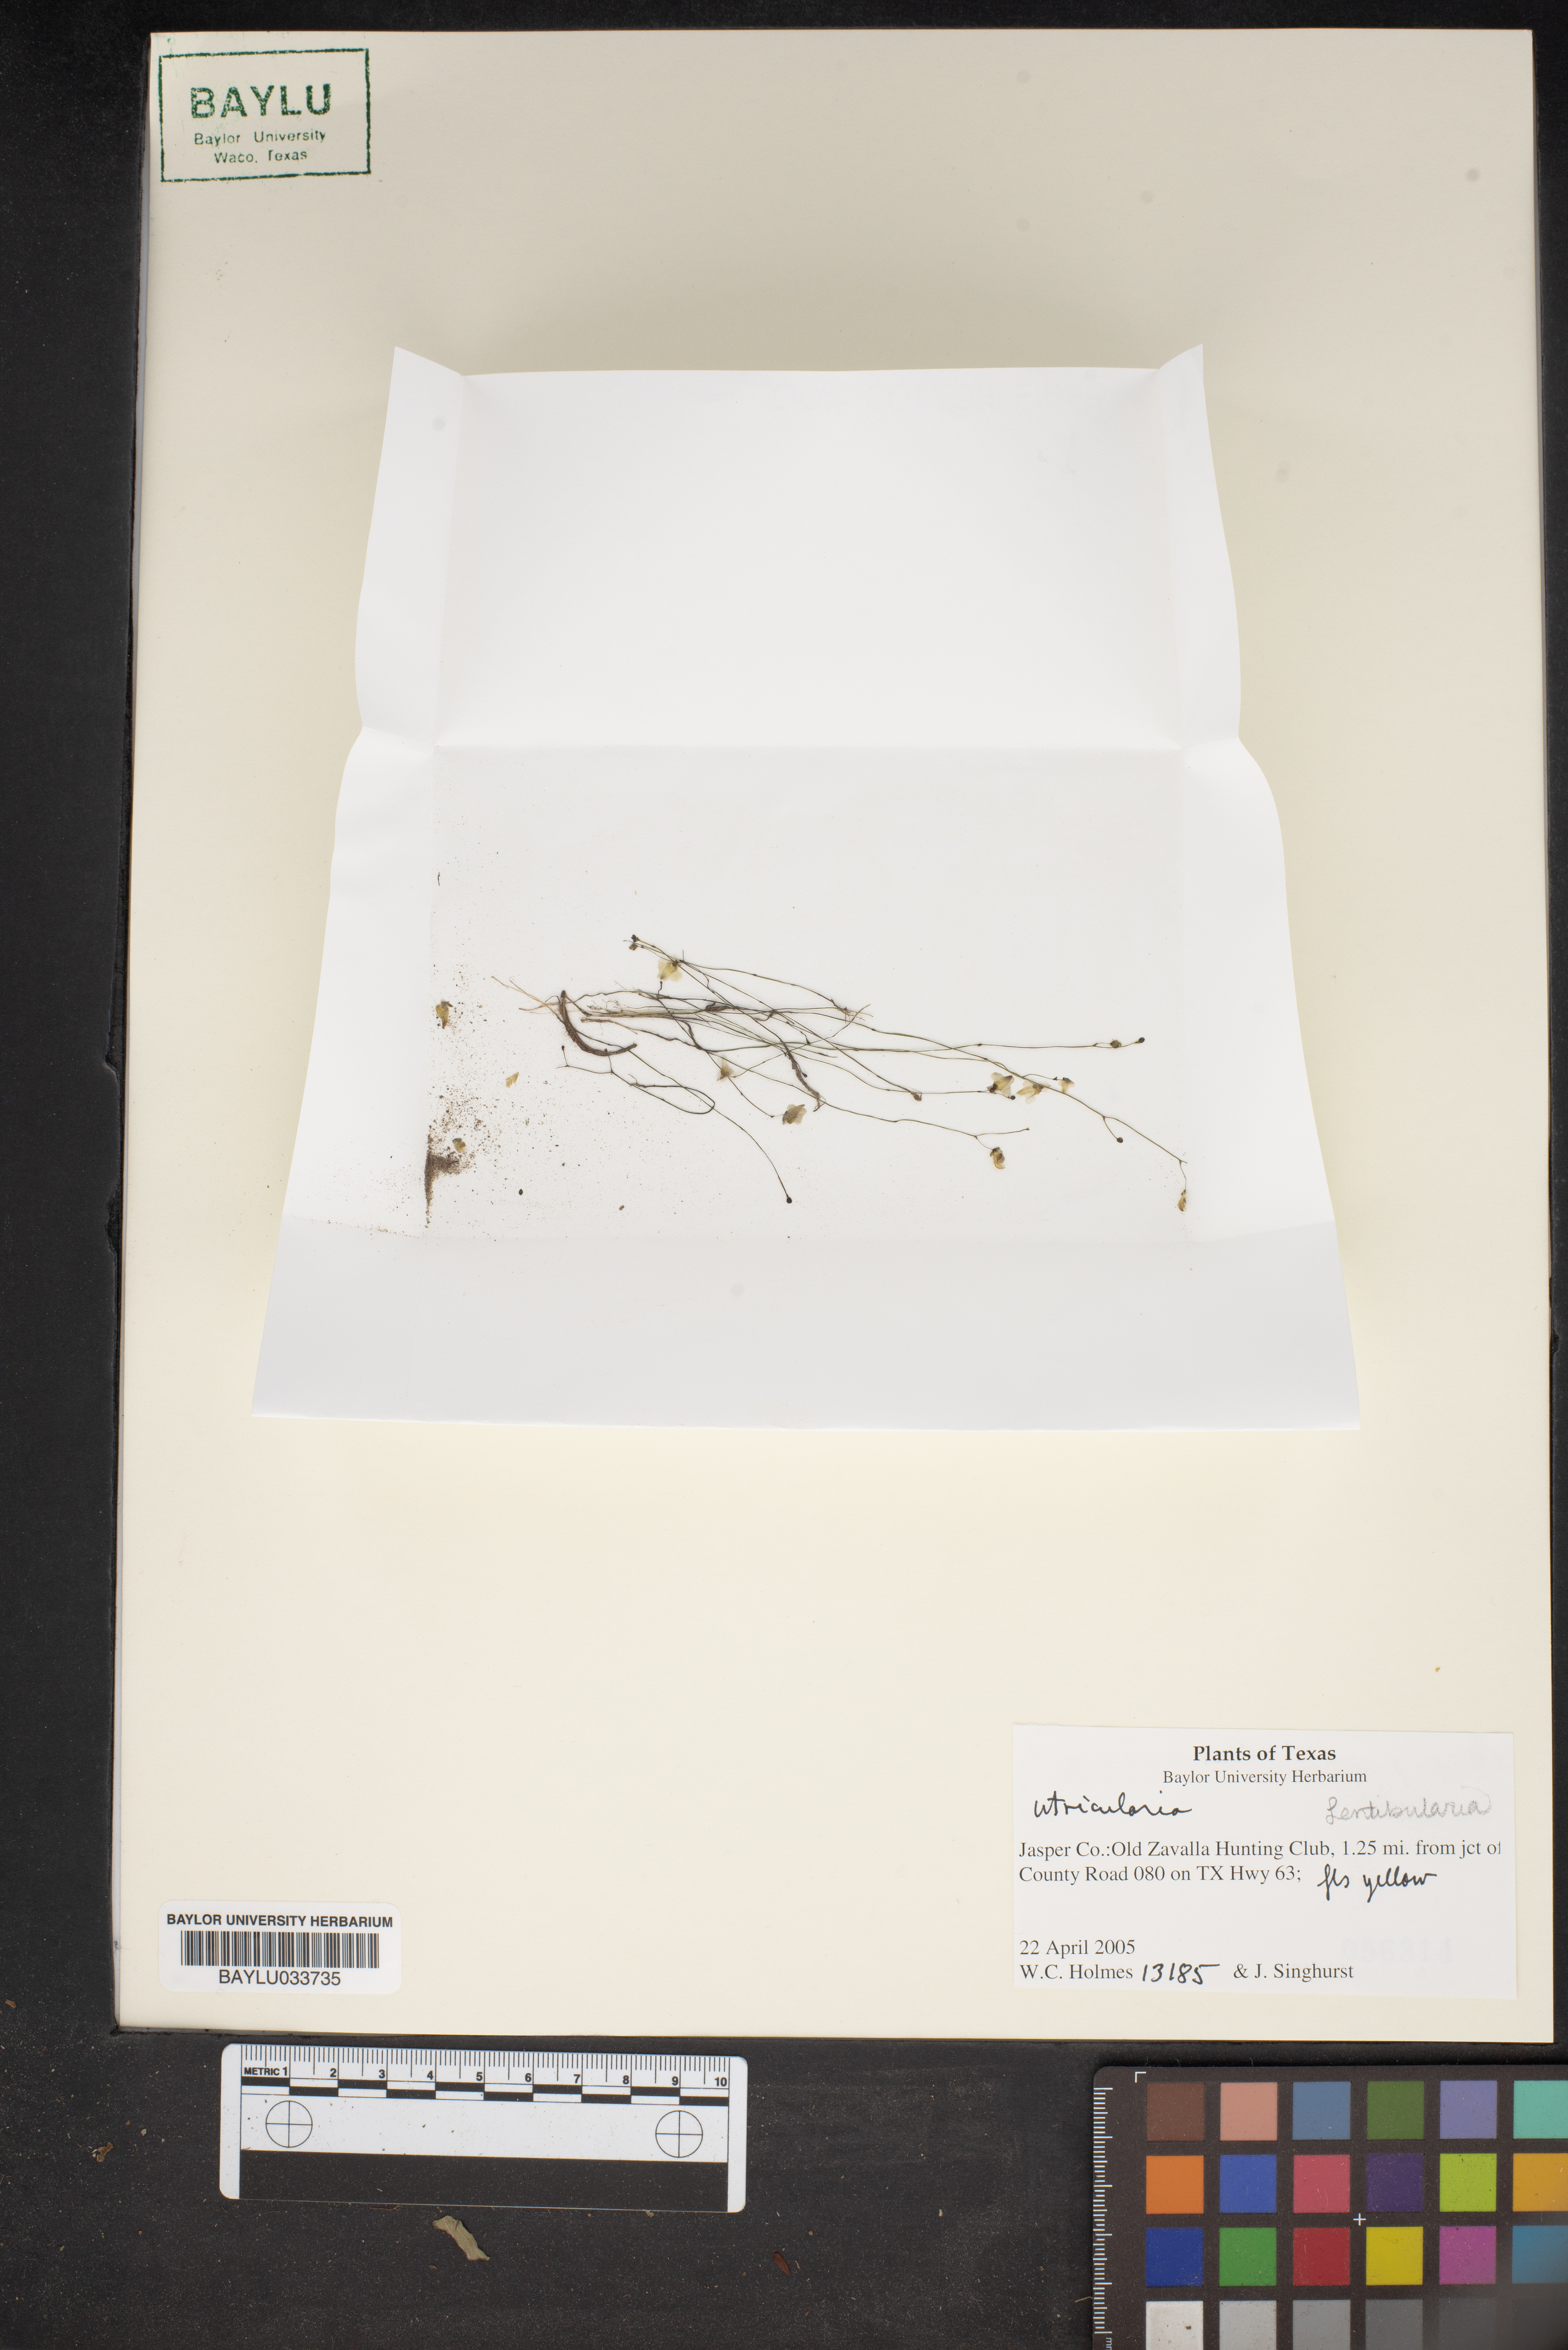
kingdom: Plantae
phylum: Tracheophyta
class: Magnoliopsida
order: Lamiales
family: Lentibulariaceae
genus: Utricularia
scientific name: Utricularia
